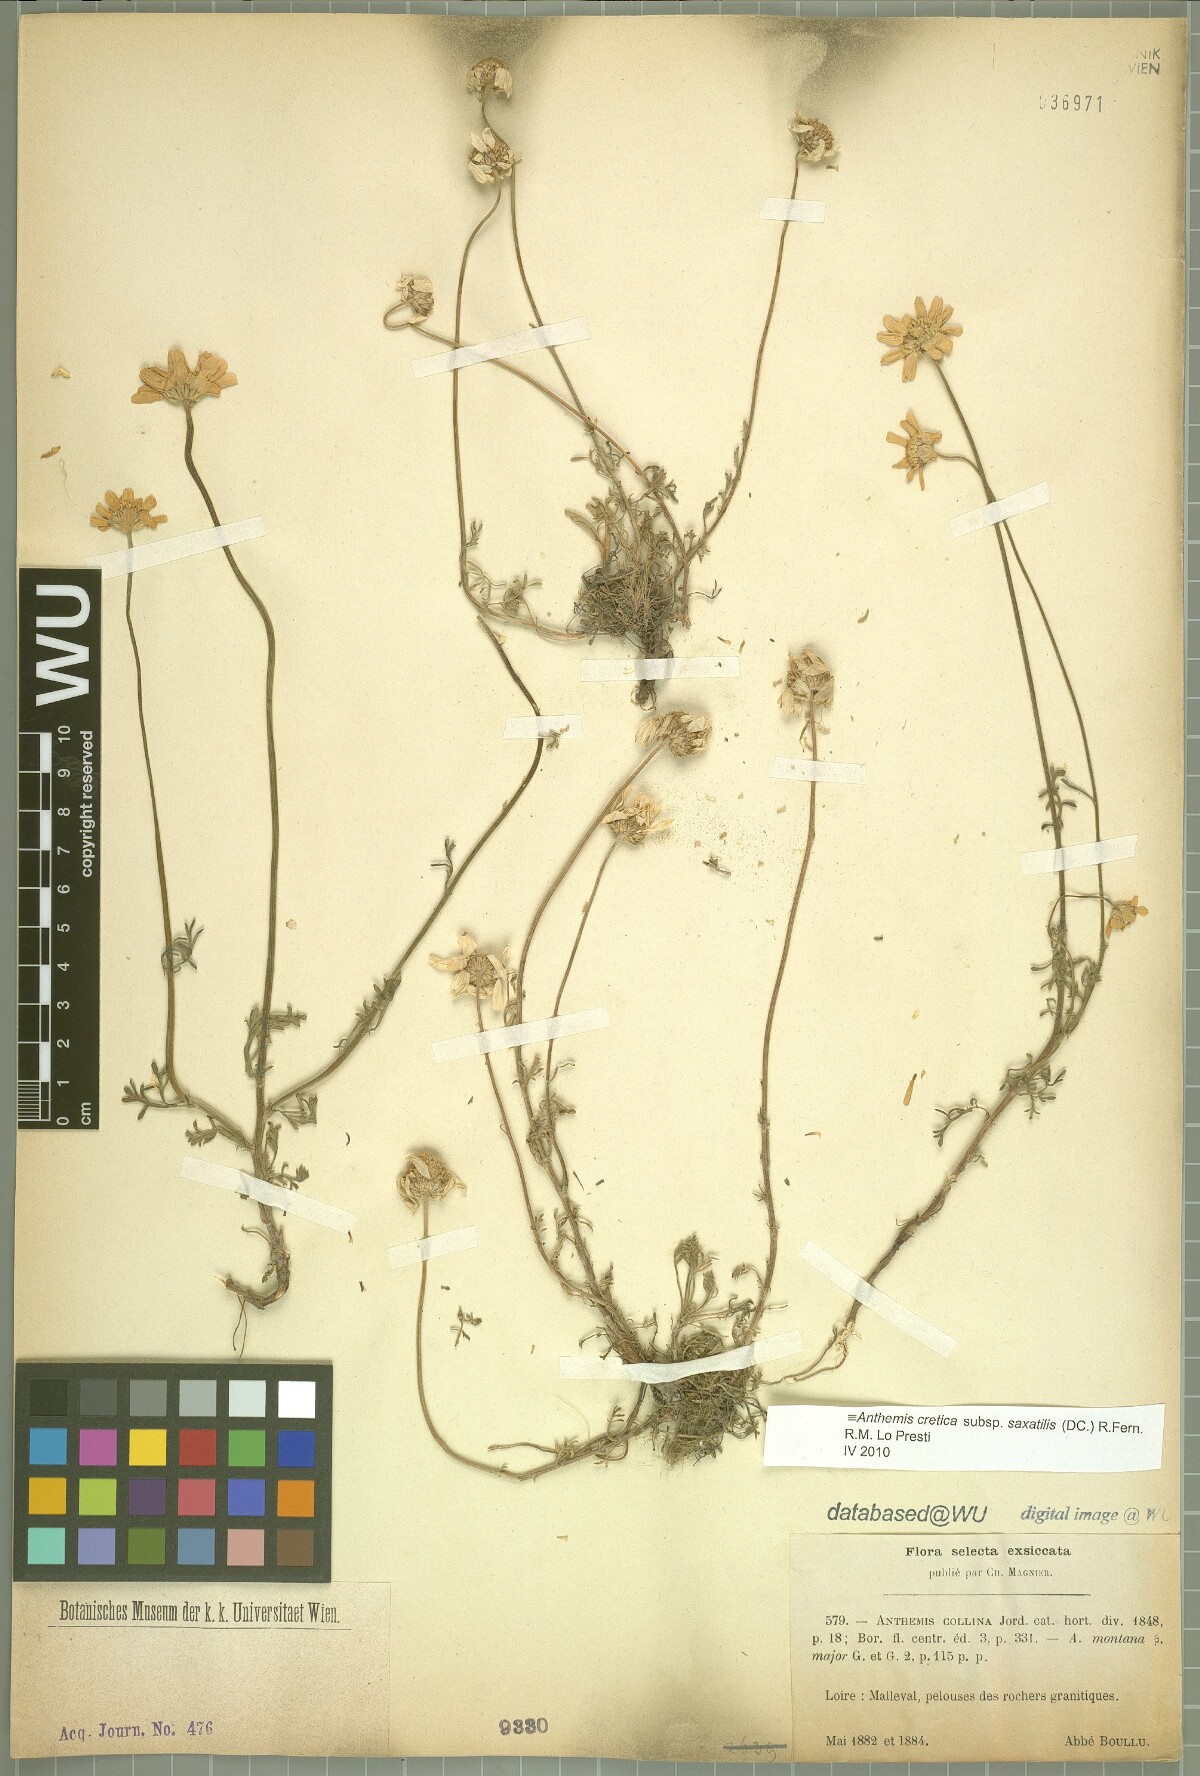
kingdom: Plantae
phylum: Tracheophyta
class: Magnoliopsida
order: Asterales
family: Asteraceae
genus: Anthemis
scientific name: Anthemis cretica
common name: Mountain dog-daisy
